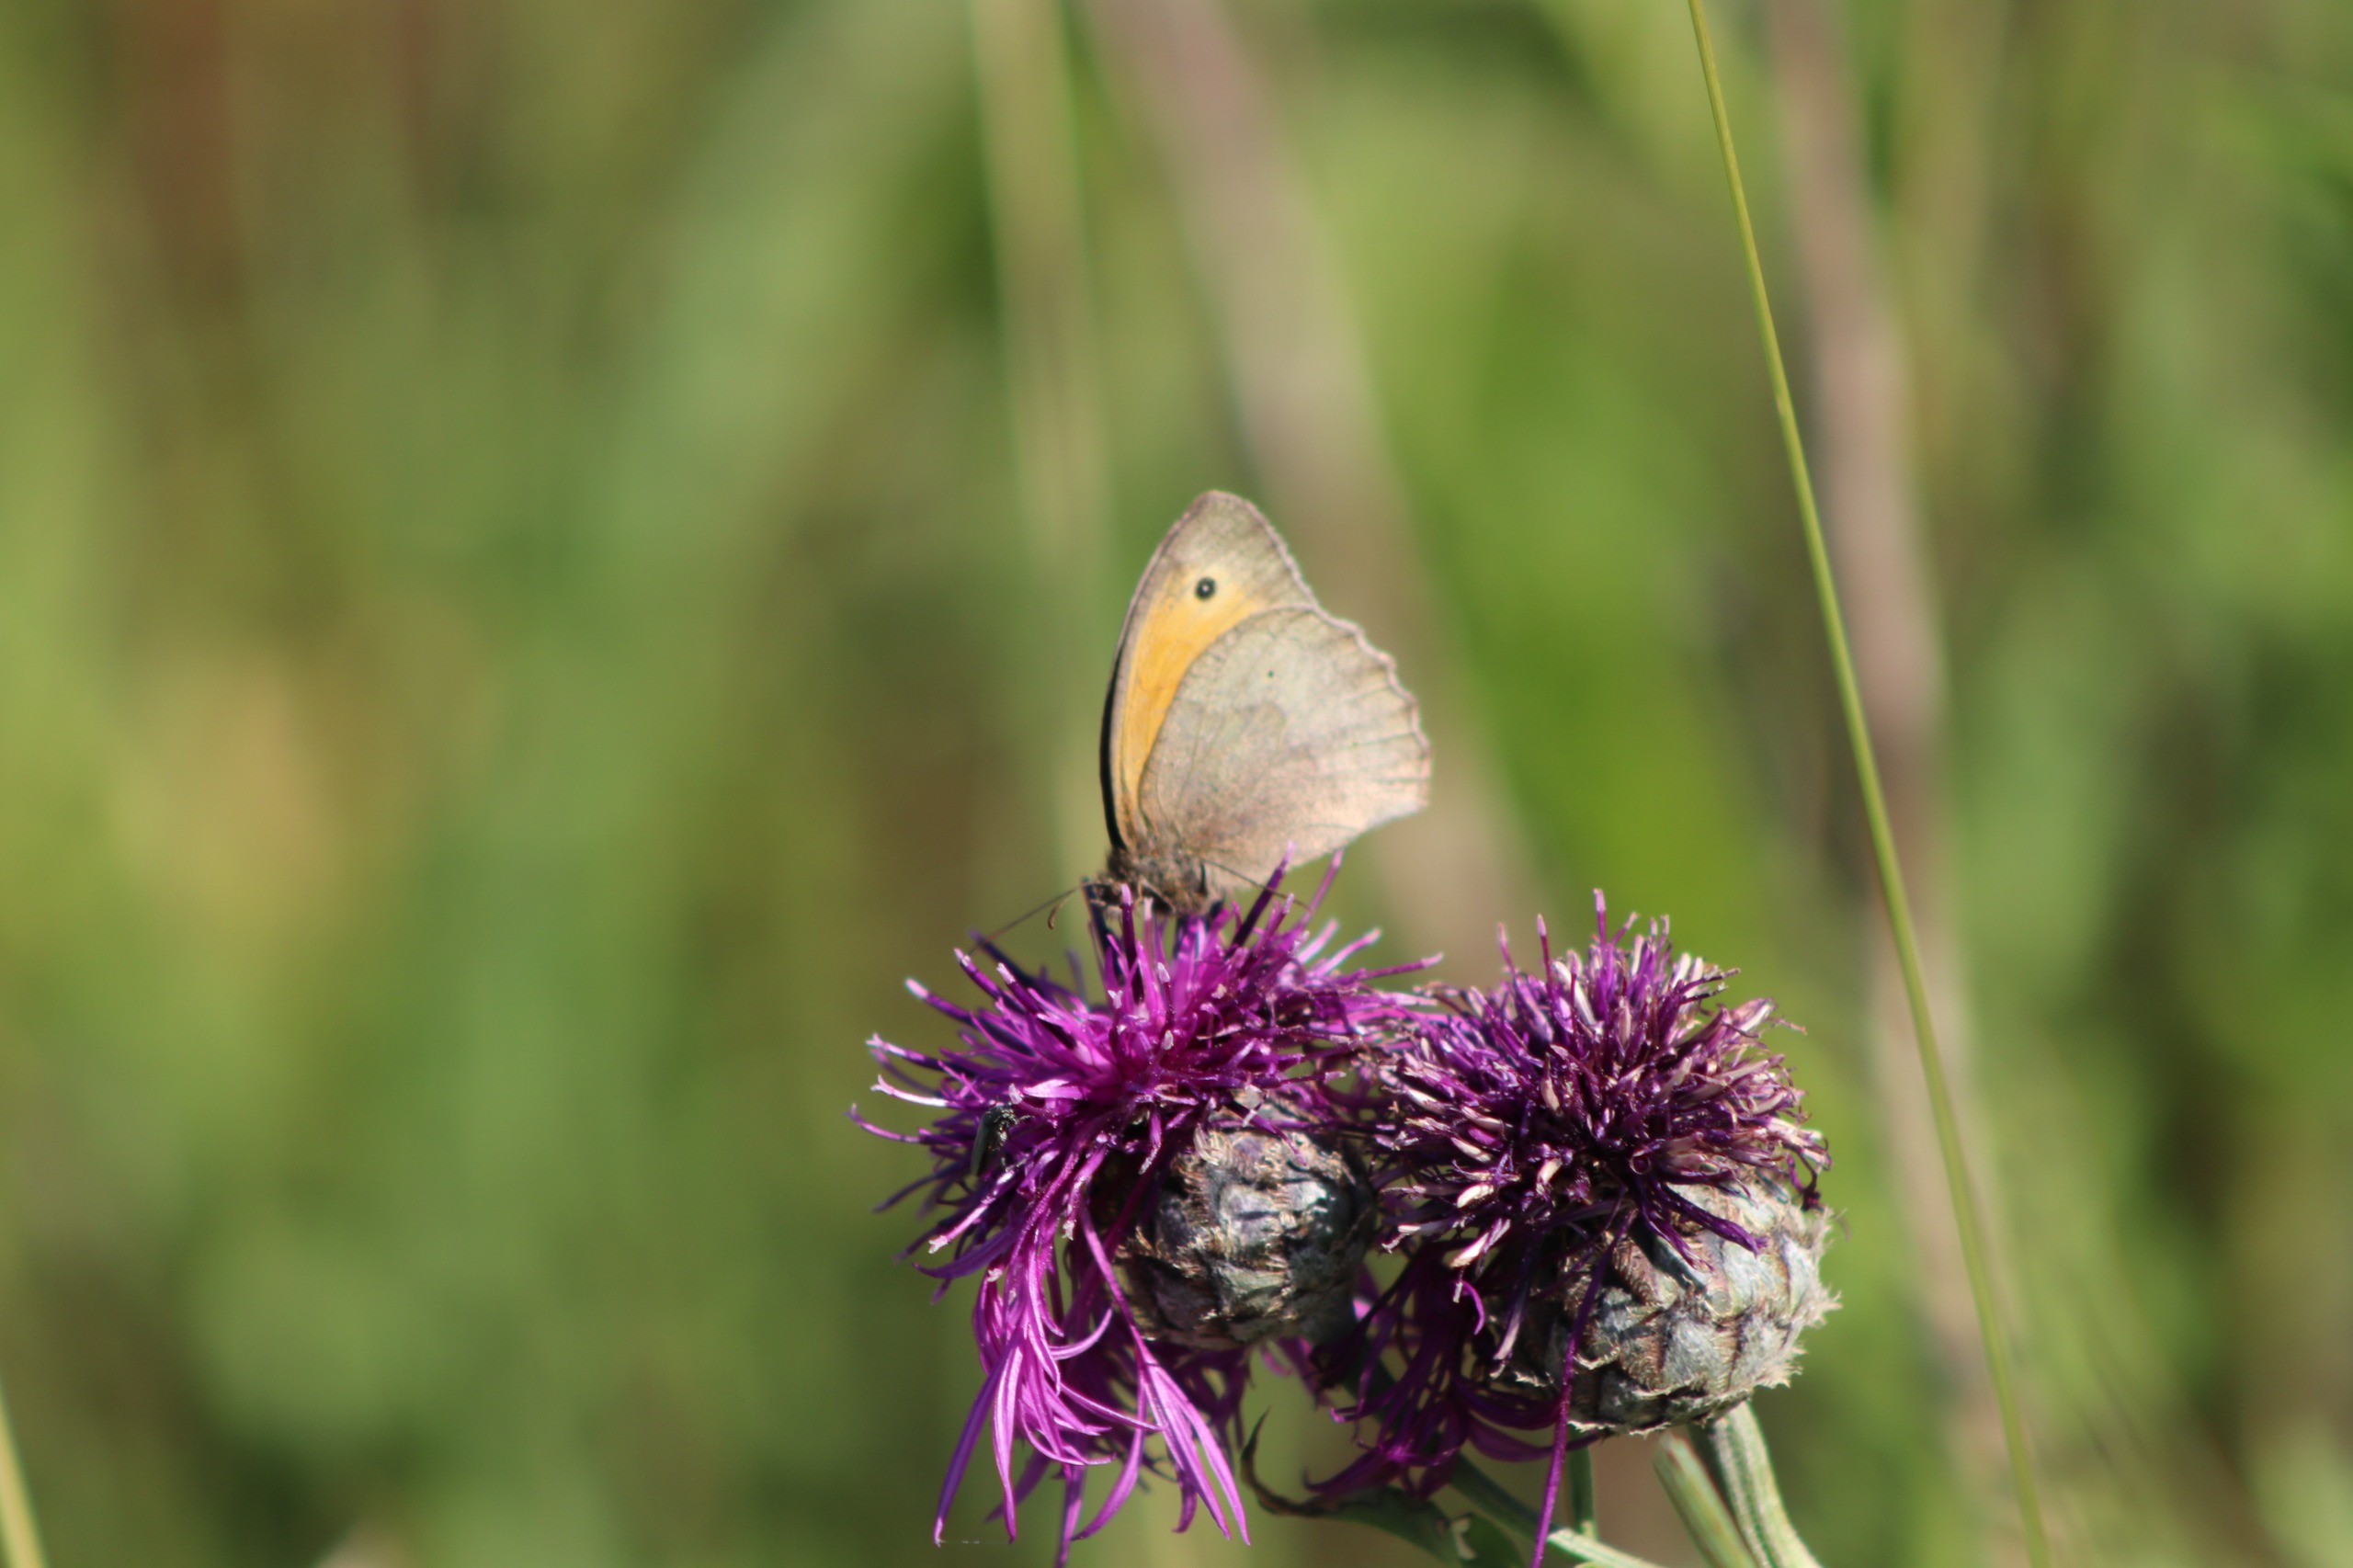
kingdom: Animalia
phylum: Arthropoda
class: Insecta
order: Lepidoptera
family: Nymphalidae
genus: Maniola
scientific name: Maniola jurtina
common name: Græsrandøje
